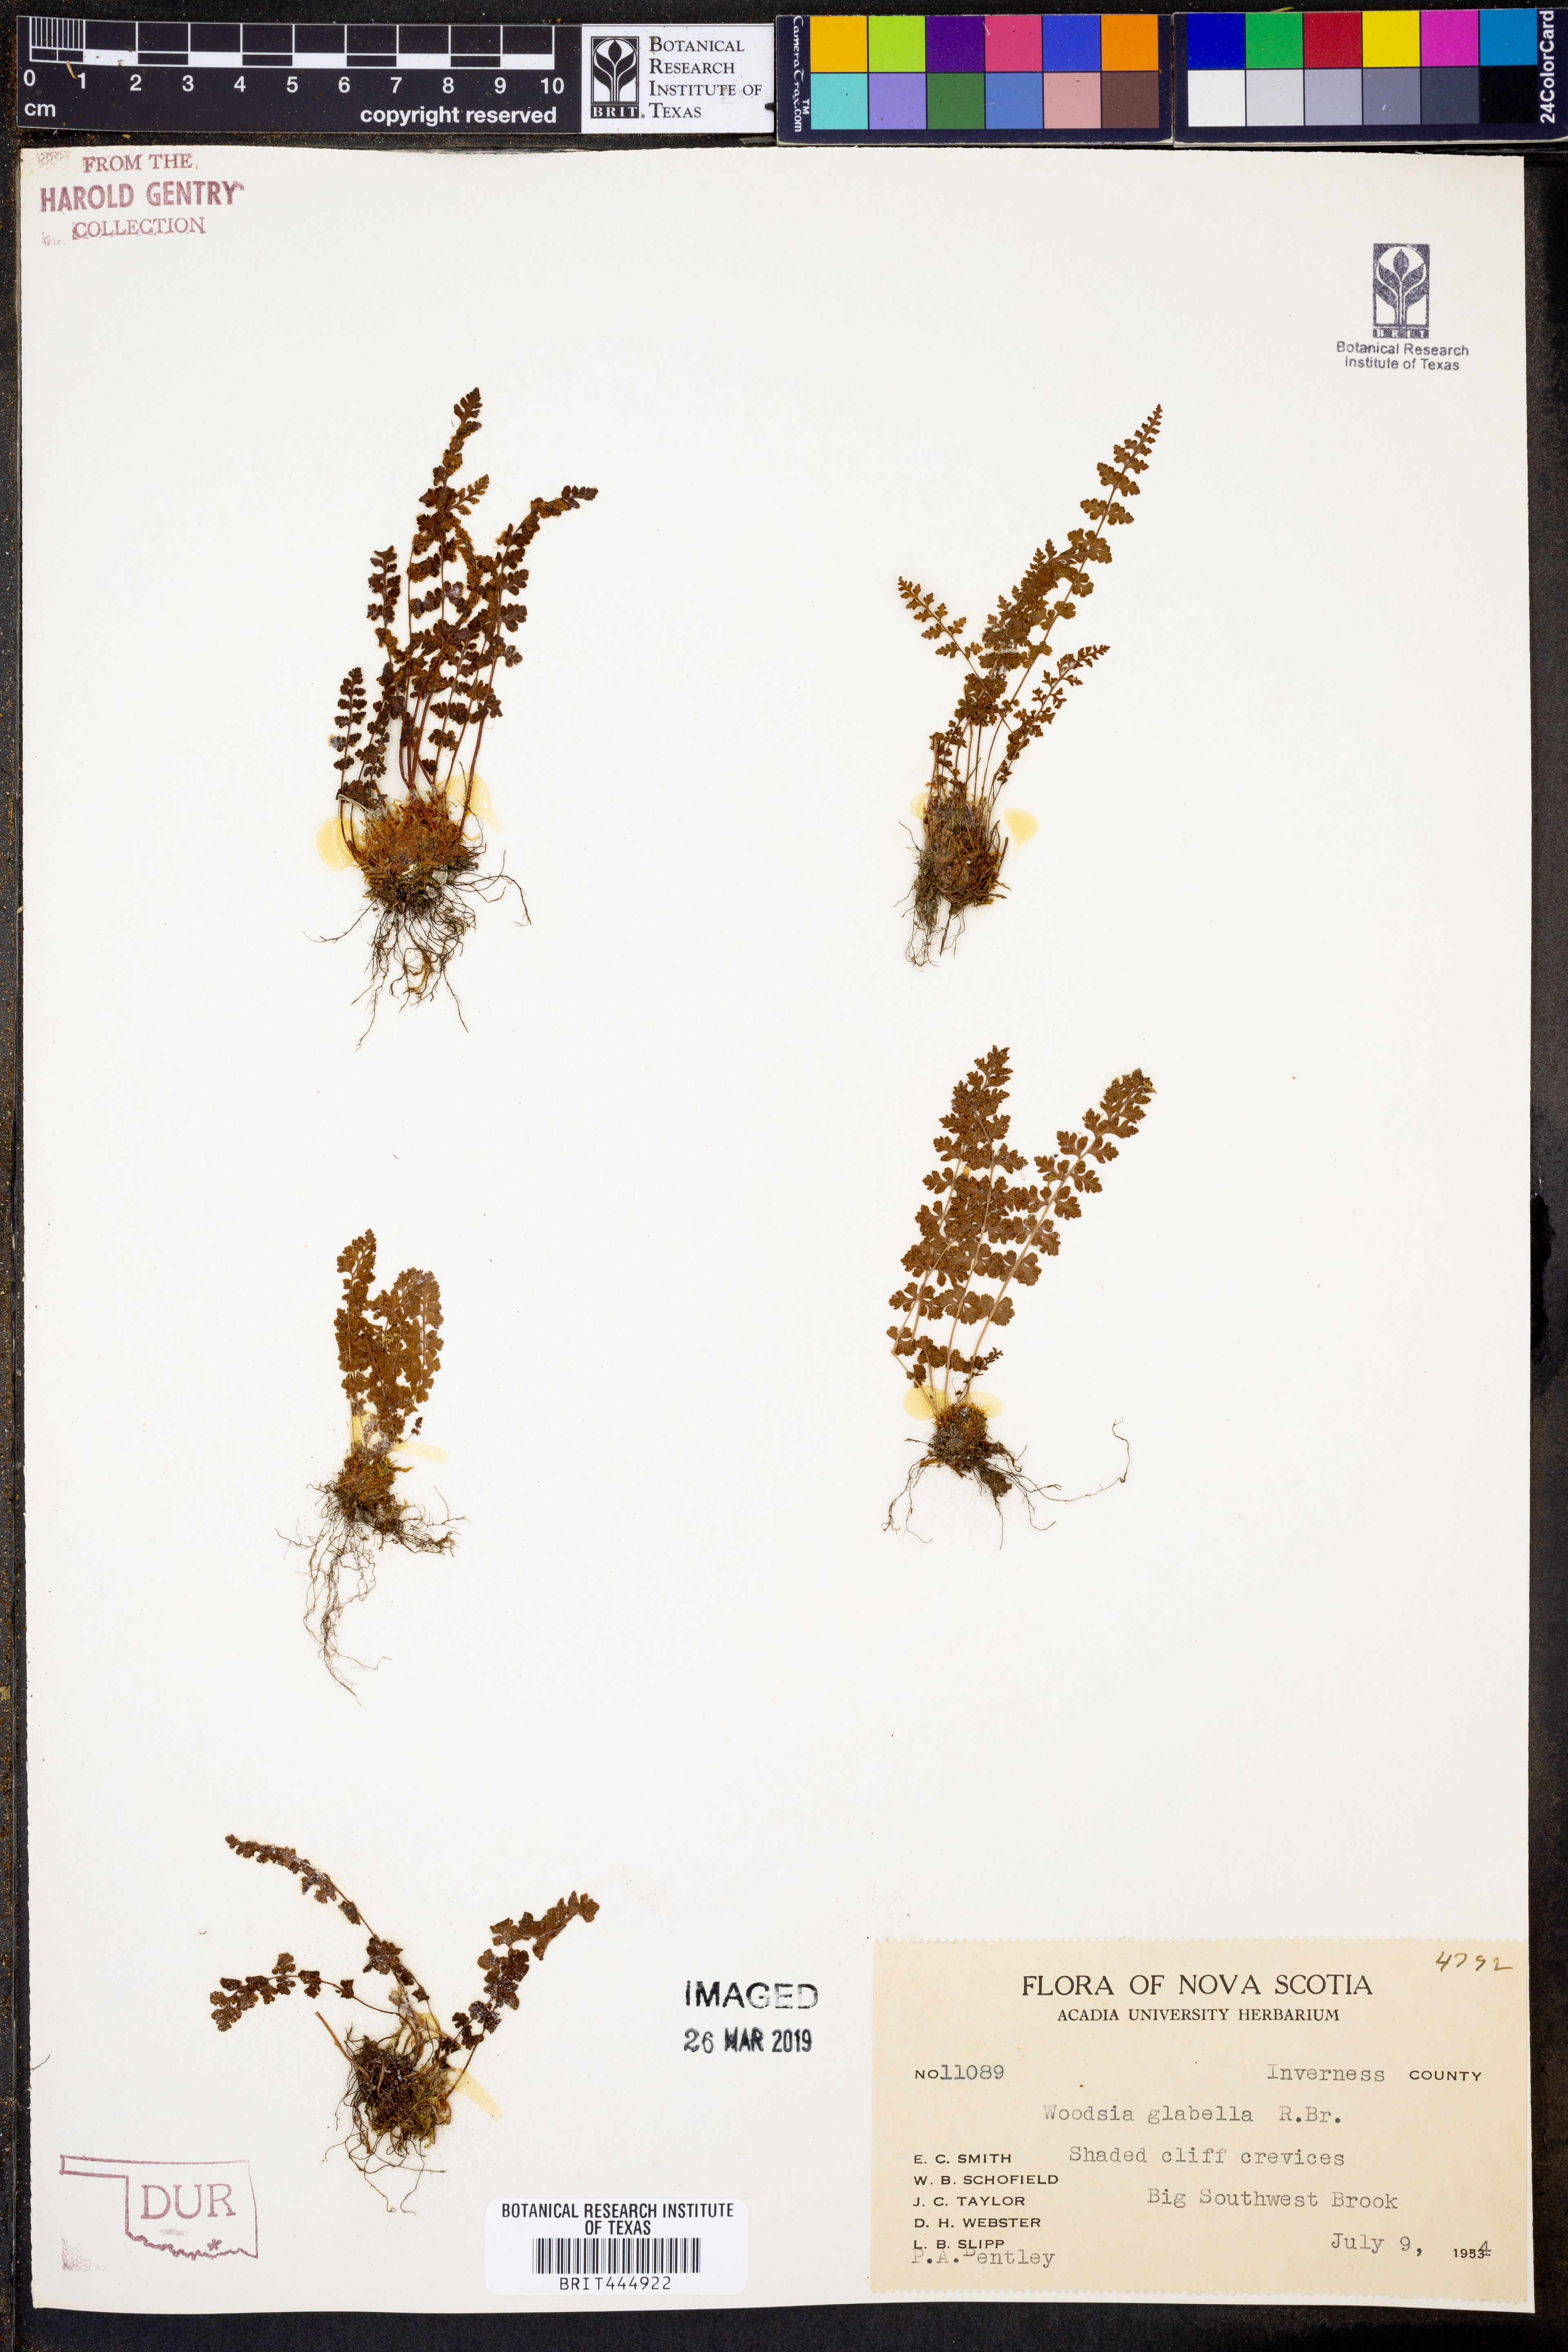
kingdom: Plantae
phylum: Tracheophyta
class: Polypodiopsida
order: Polypodiales
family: Woodsiaceae
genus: Woodsia
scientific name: Woodsia glabella
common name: Smooth woodsia
